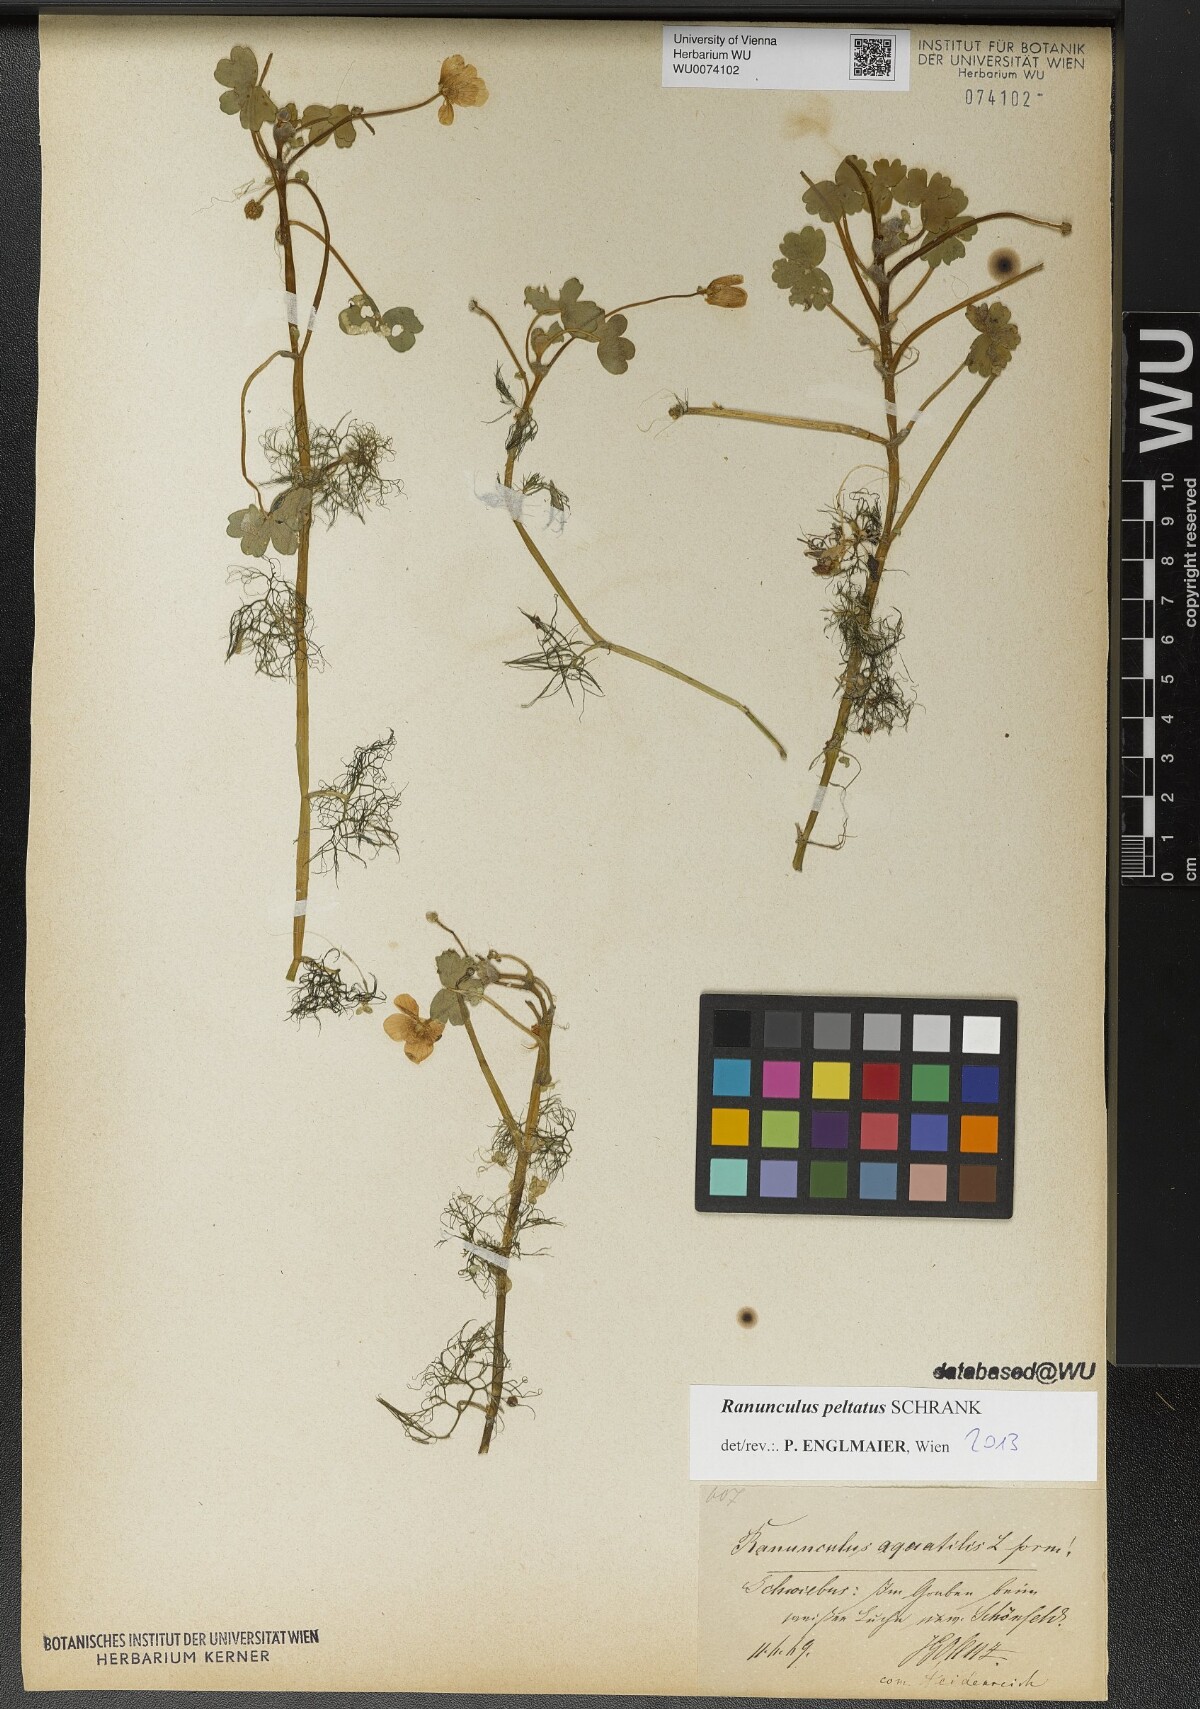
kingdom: Plantae
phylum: Tracheophyta
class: Magnoliopsida
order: Ranunculales
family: Ranunculaceae
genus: Ranunculus
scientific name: Ranunculus peltatus
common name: Pond water-crowfoot
